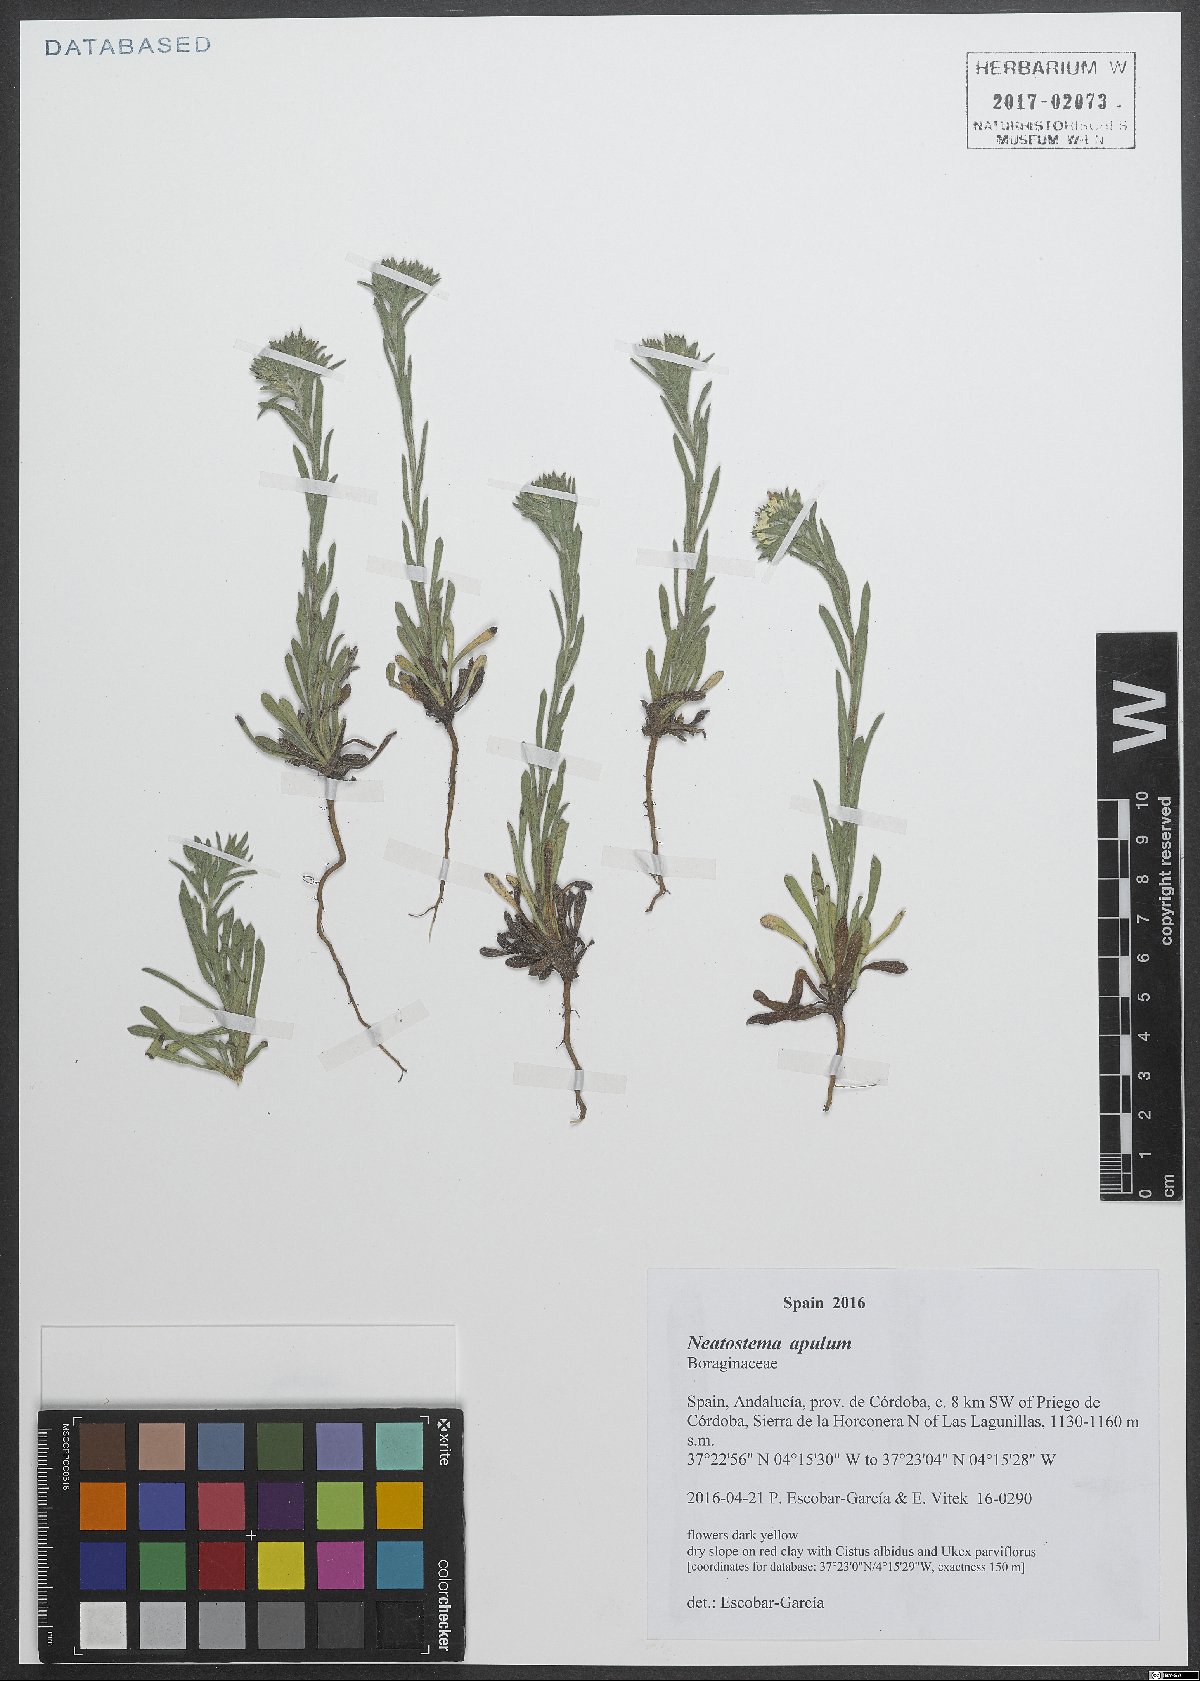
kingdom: Plantae
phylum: Tracheophyta
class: Magnoliopsida
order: Boraginales
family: Boraginaceae
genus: Neatostema
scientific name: Neatostema apulum
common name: Hairy sheepweed
